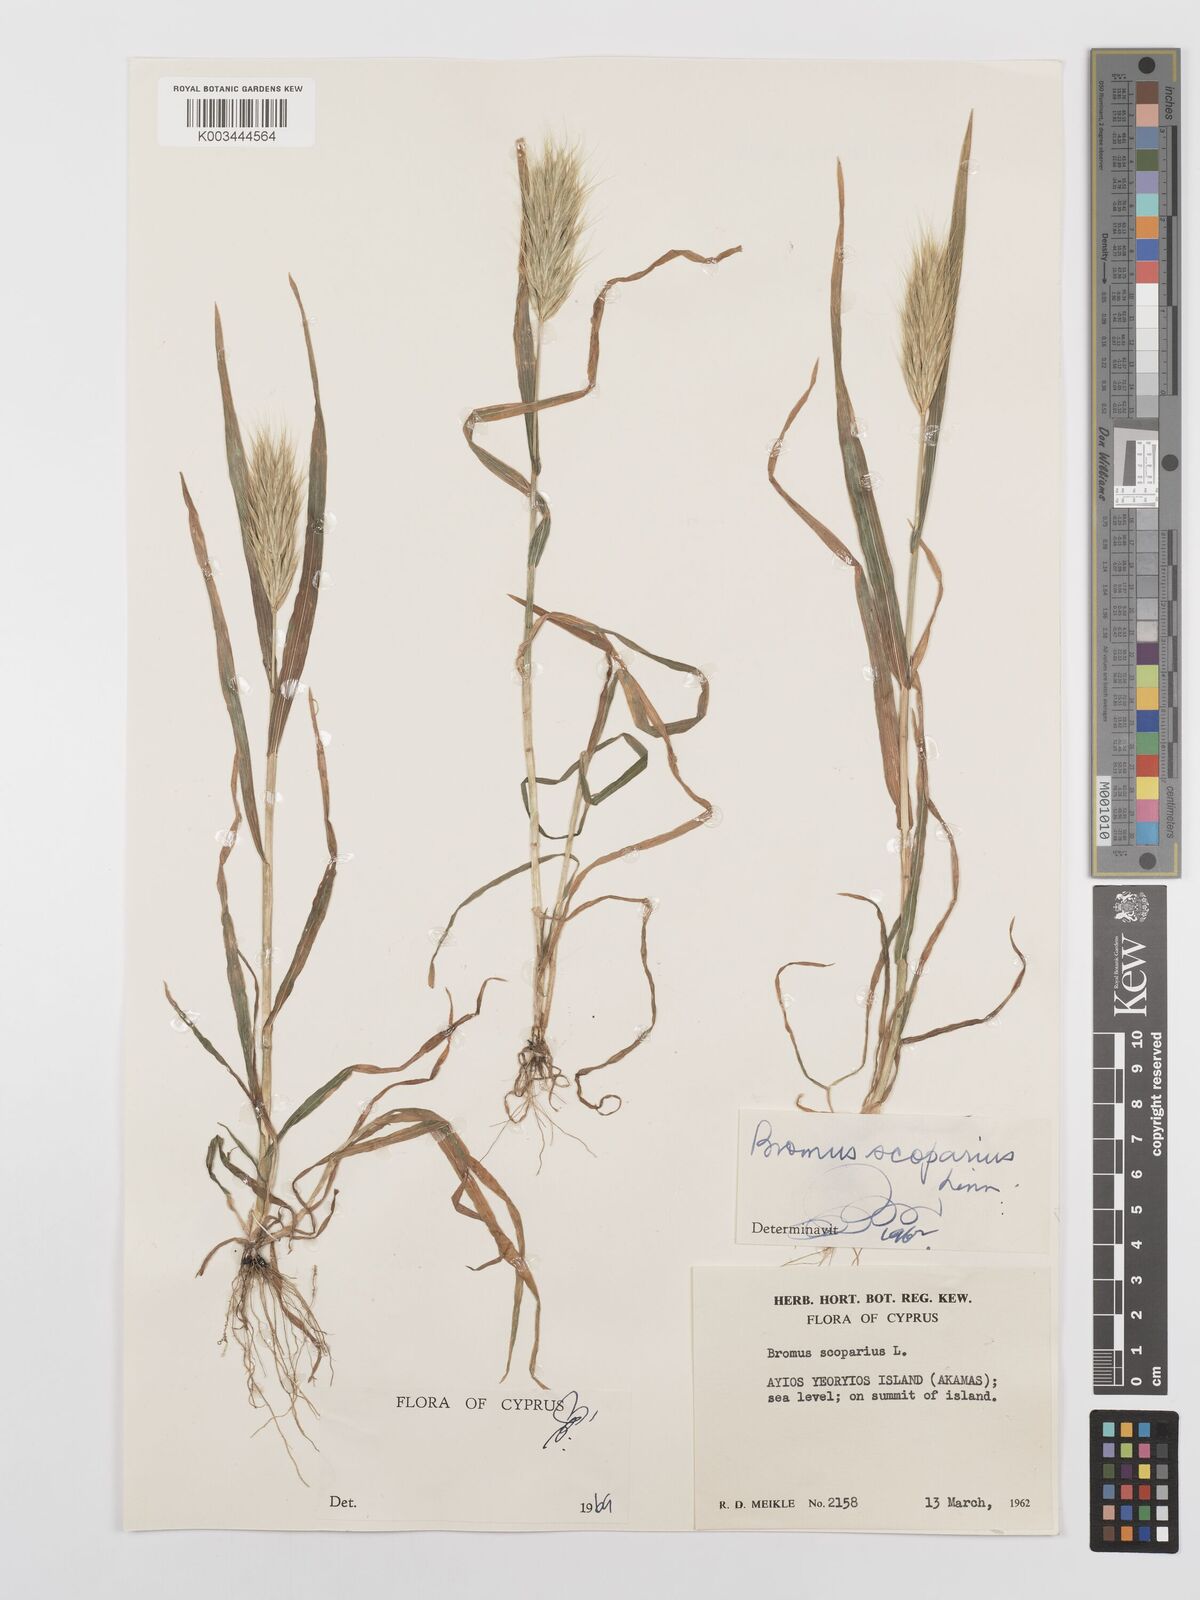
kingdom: Plantae
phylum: Tracheophyta
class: Liliopsida
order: Poales
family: Poaceae
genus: Bromus
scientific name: Bromus scoparius
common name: Broom brome
